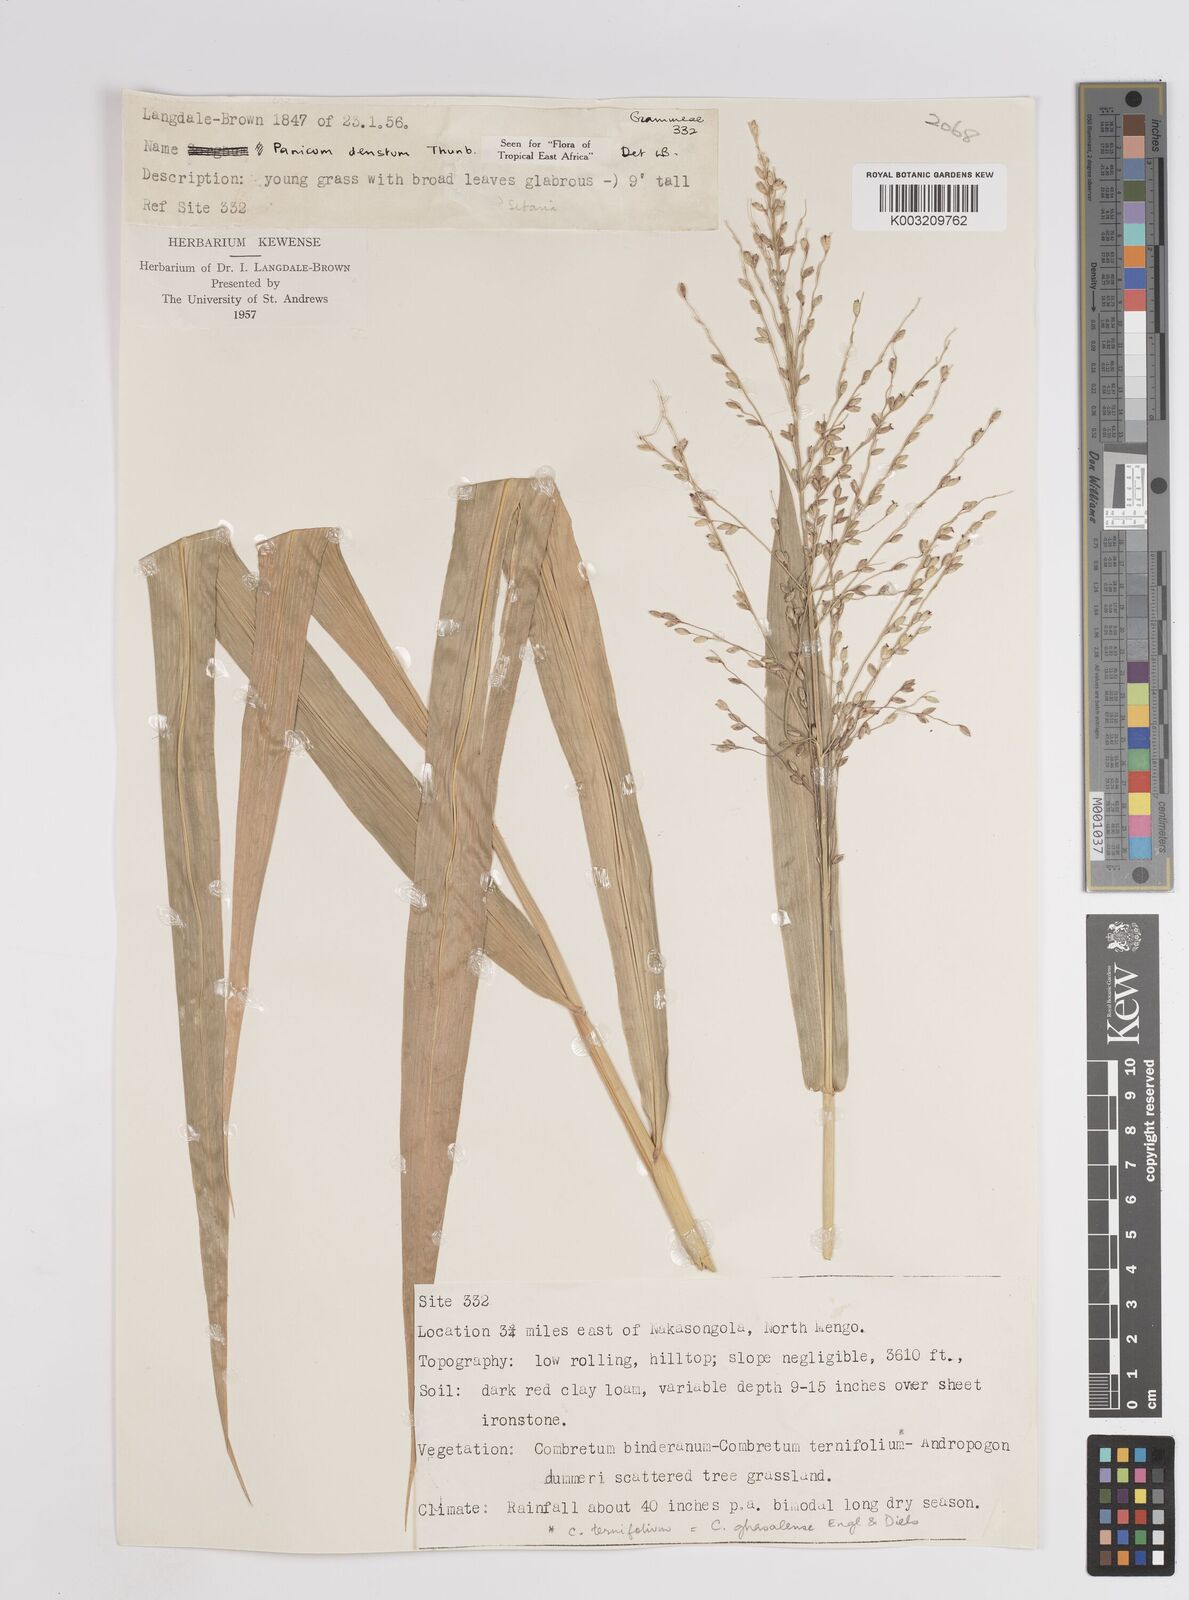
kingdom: Plantae
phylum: Tracheophyta
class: Liliopsida
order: Poales
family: Poaceae
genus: Panicum
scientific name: Panicum deustum
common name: Reed panicum
